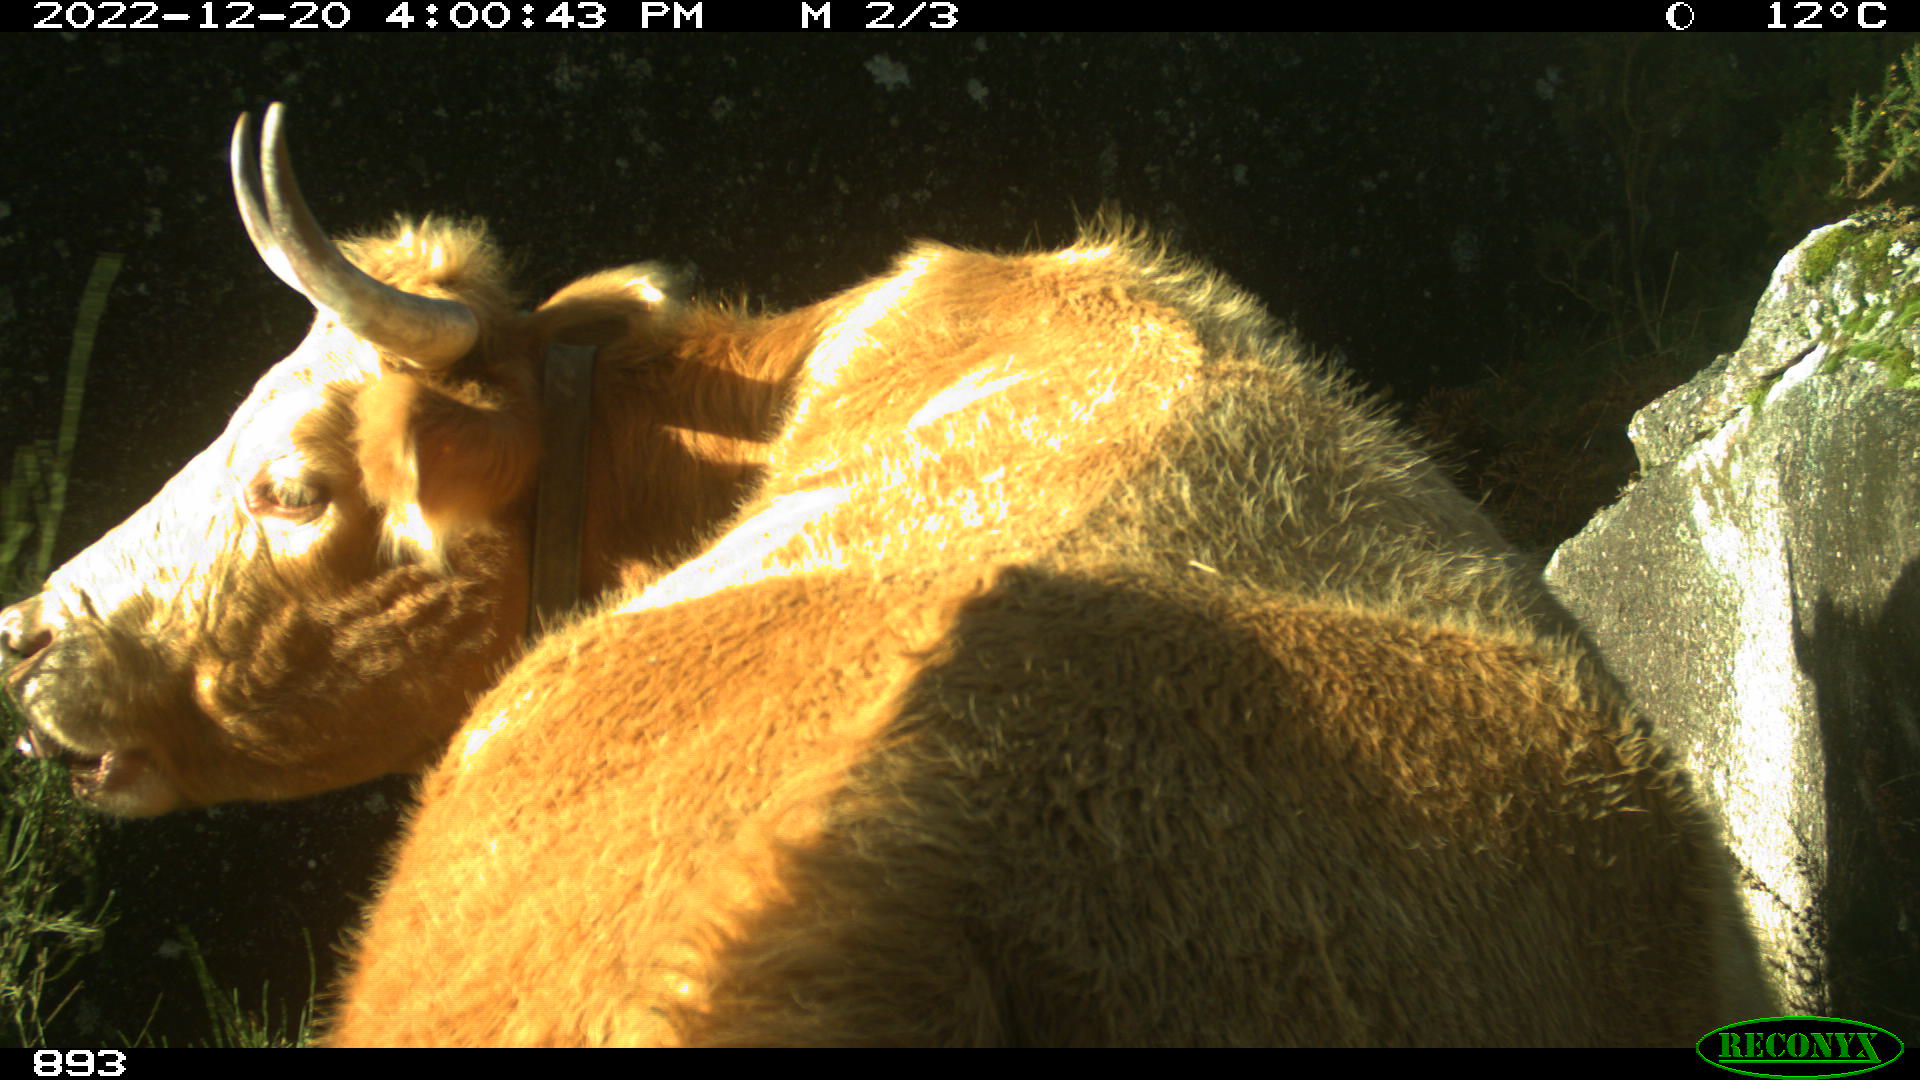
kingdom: Animalia
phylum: Chordata
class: Mammalia
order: Artiodactyla
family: Bovidae
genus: Bos
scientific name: Bos taurus
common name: Domesticated cattle
